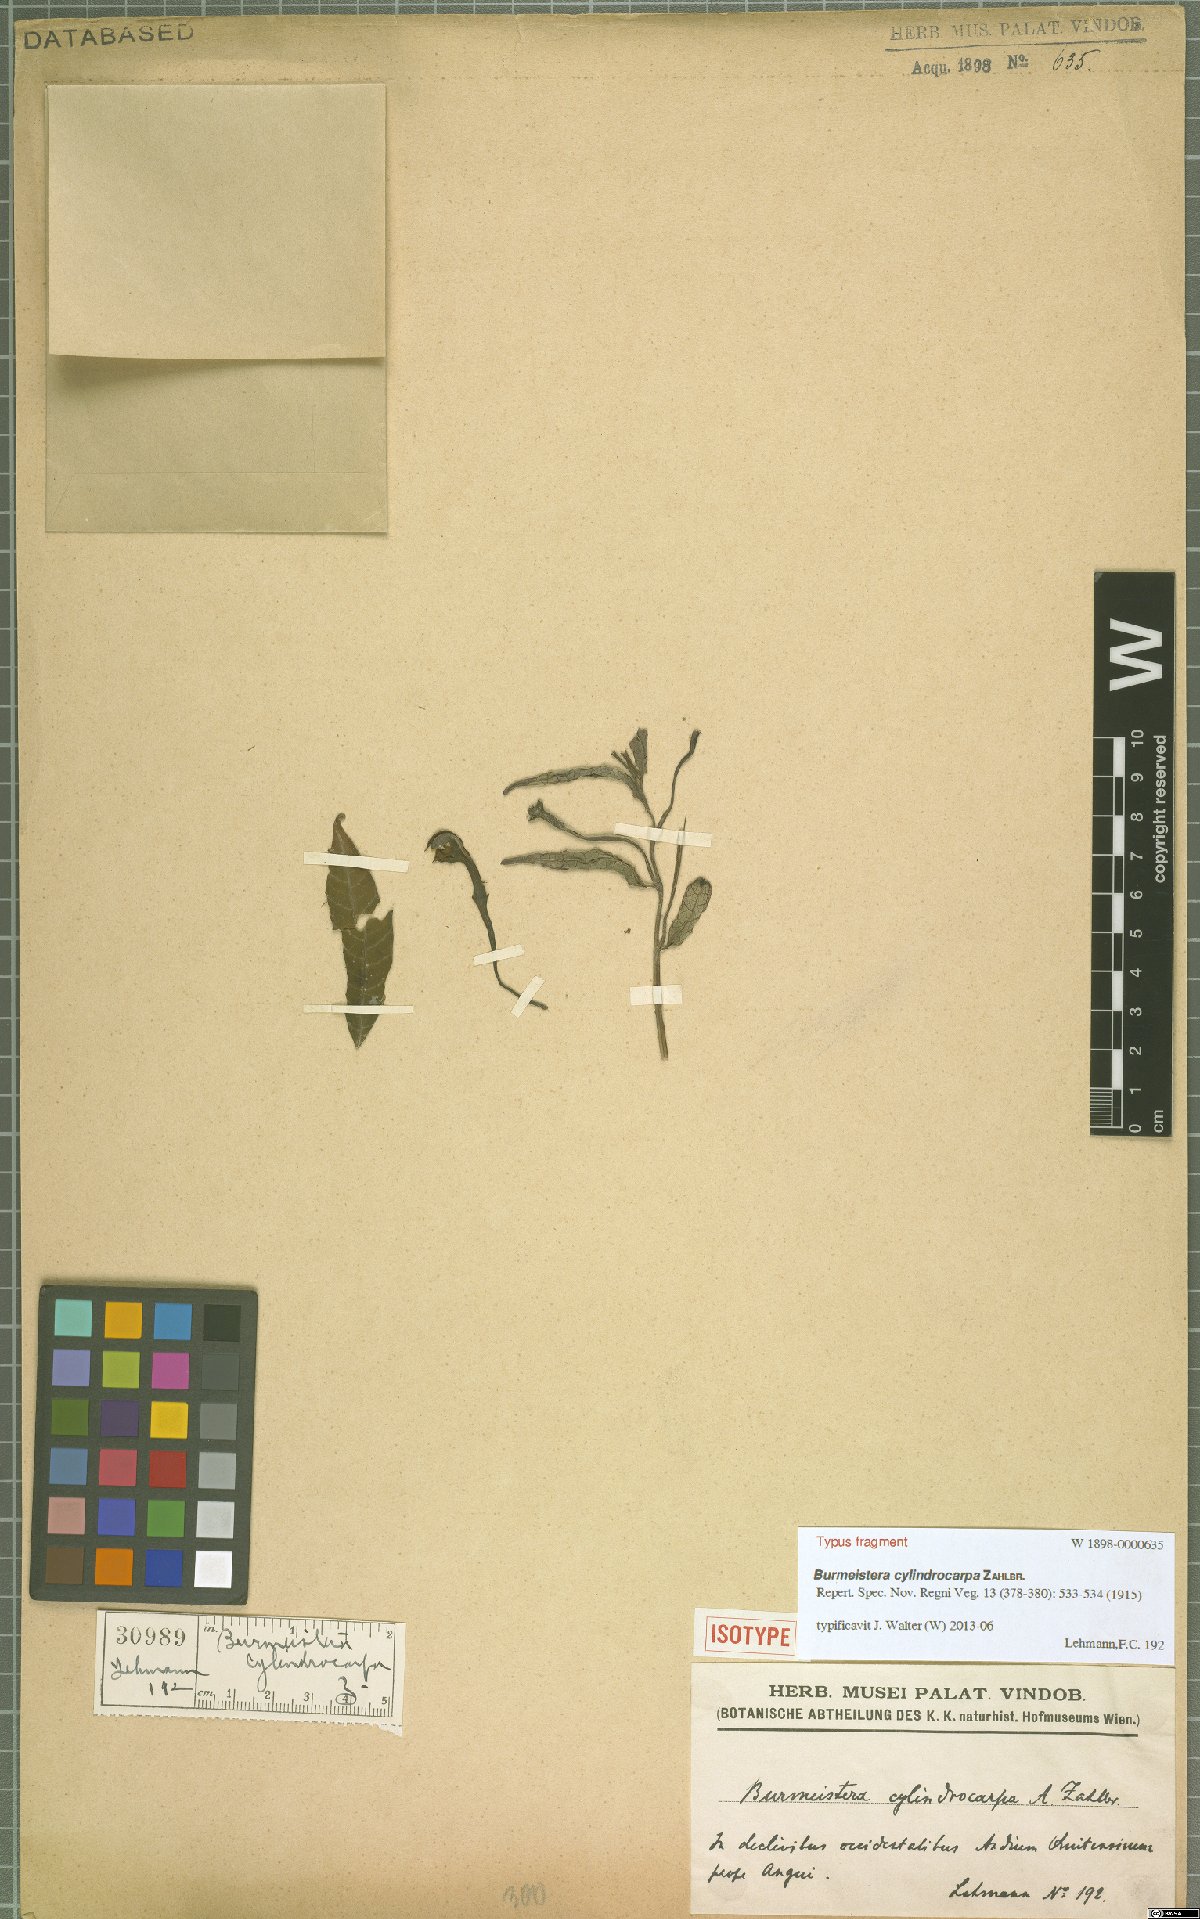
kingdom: Plantae
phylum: Tracheophyta
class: Magnoliopsida
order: Asterales
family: Campanulaceae
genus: Burmeistera
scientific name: Burmeistera cylindrocarpa
